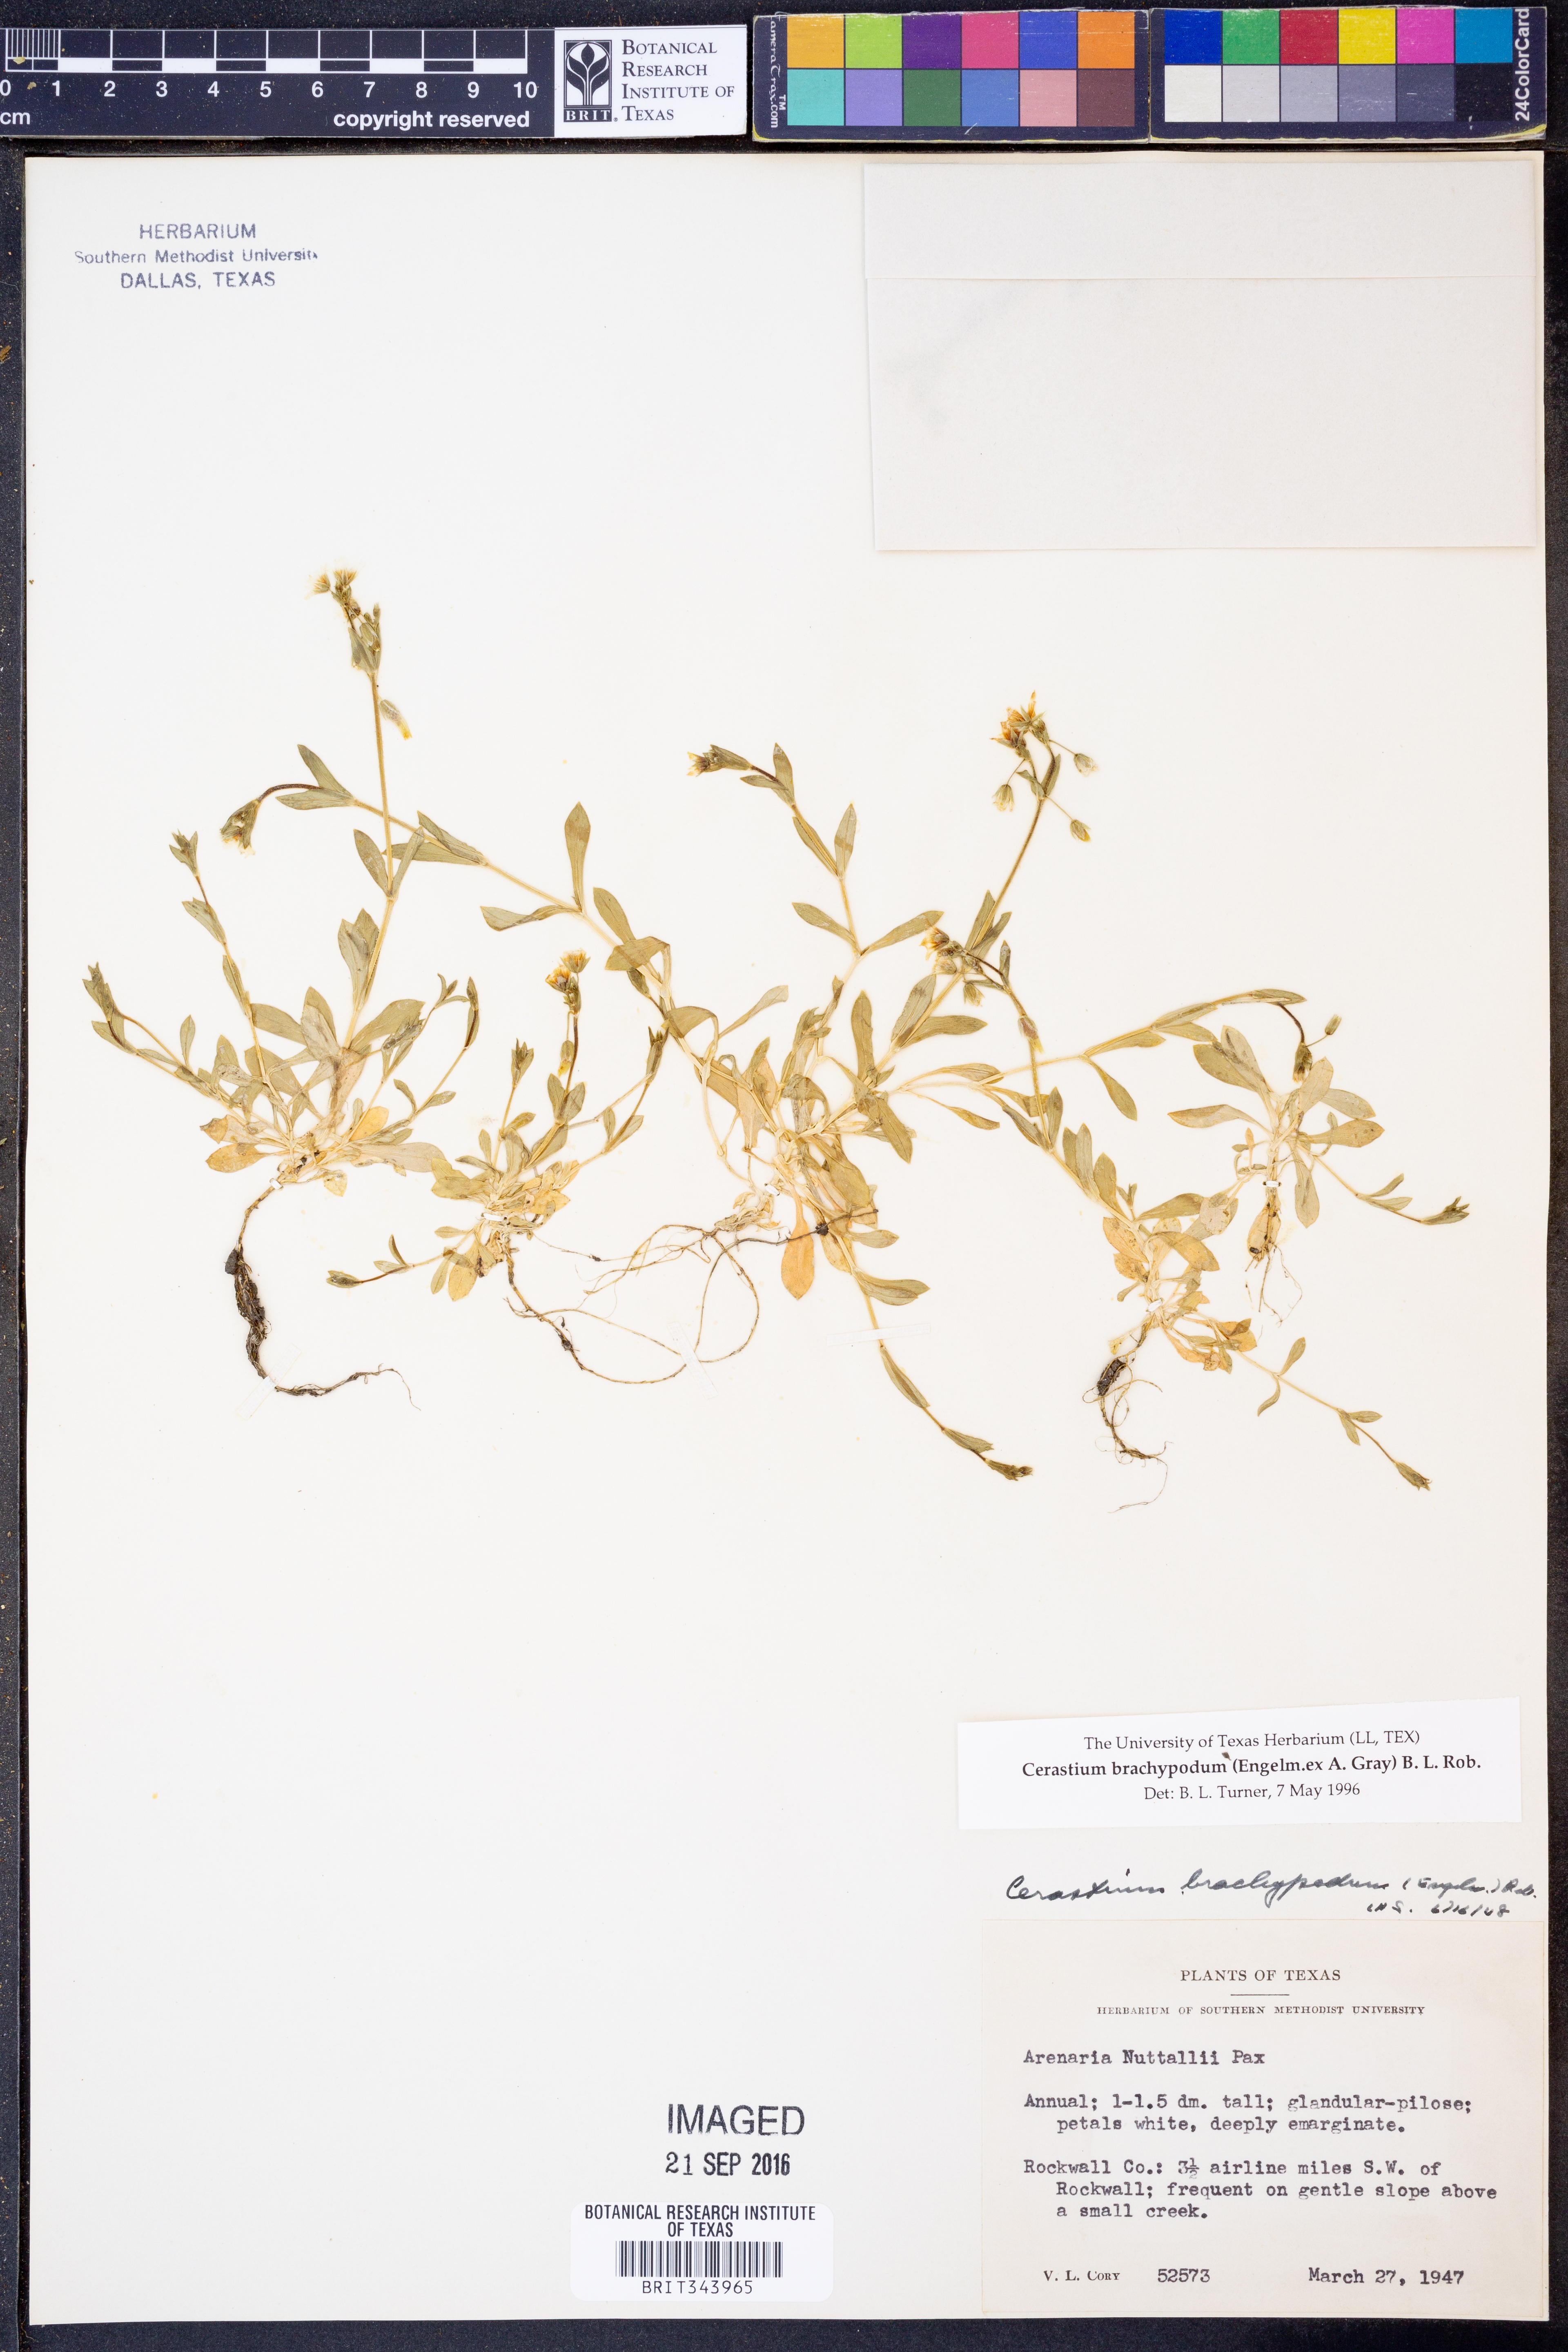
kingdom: Plantae
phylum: Tracheophyta
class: Magnoliopsida
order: Caryophyllales
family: Caryophyllaceae
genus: Cerastium
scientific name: Cerastium brachypodum
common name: Short-pedicelled nodding chickweed
